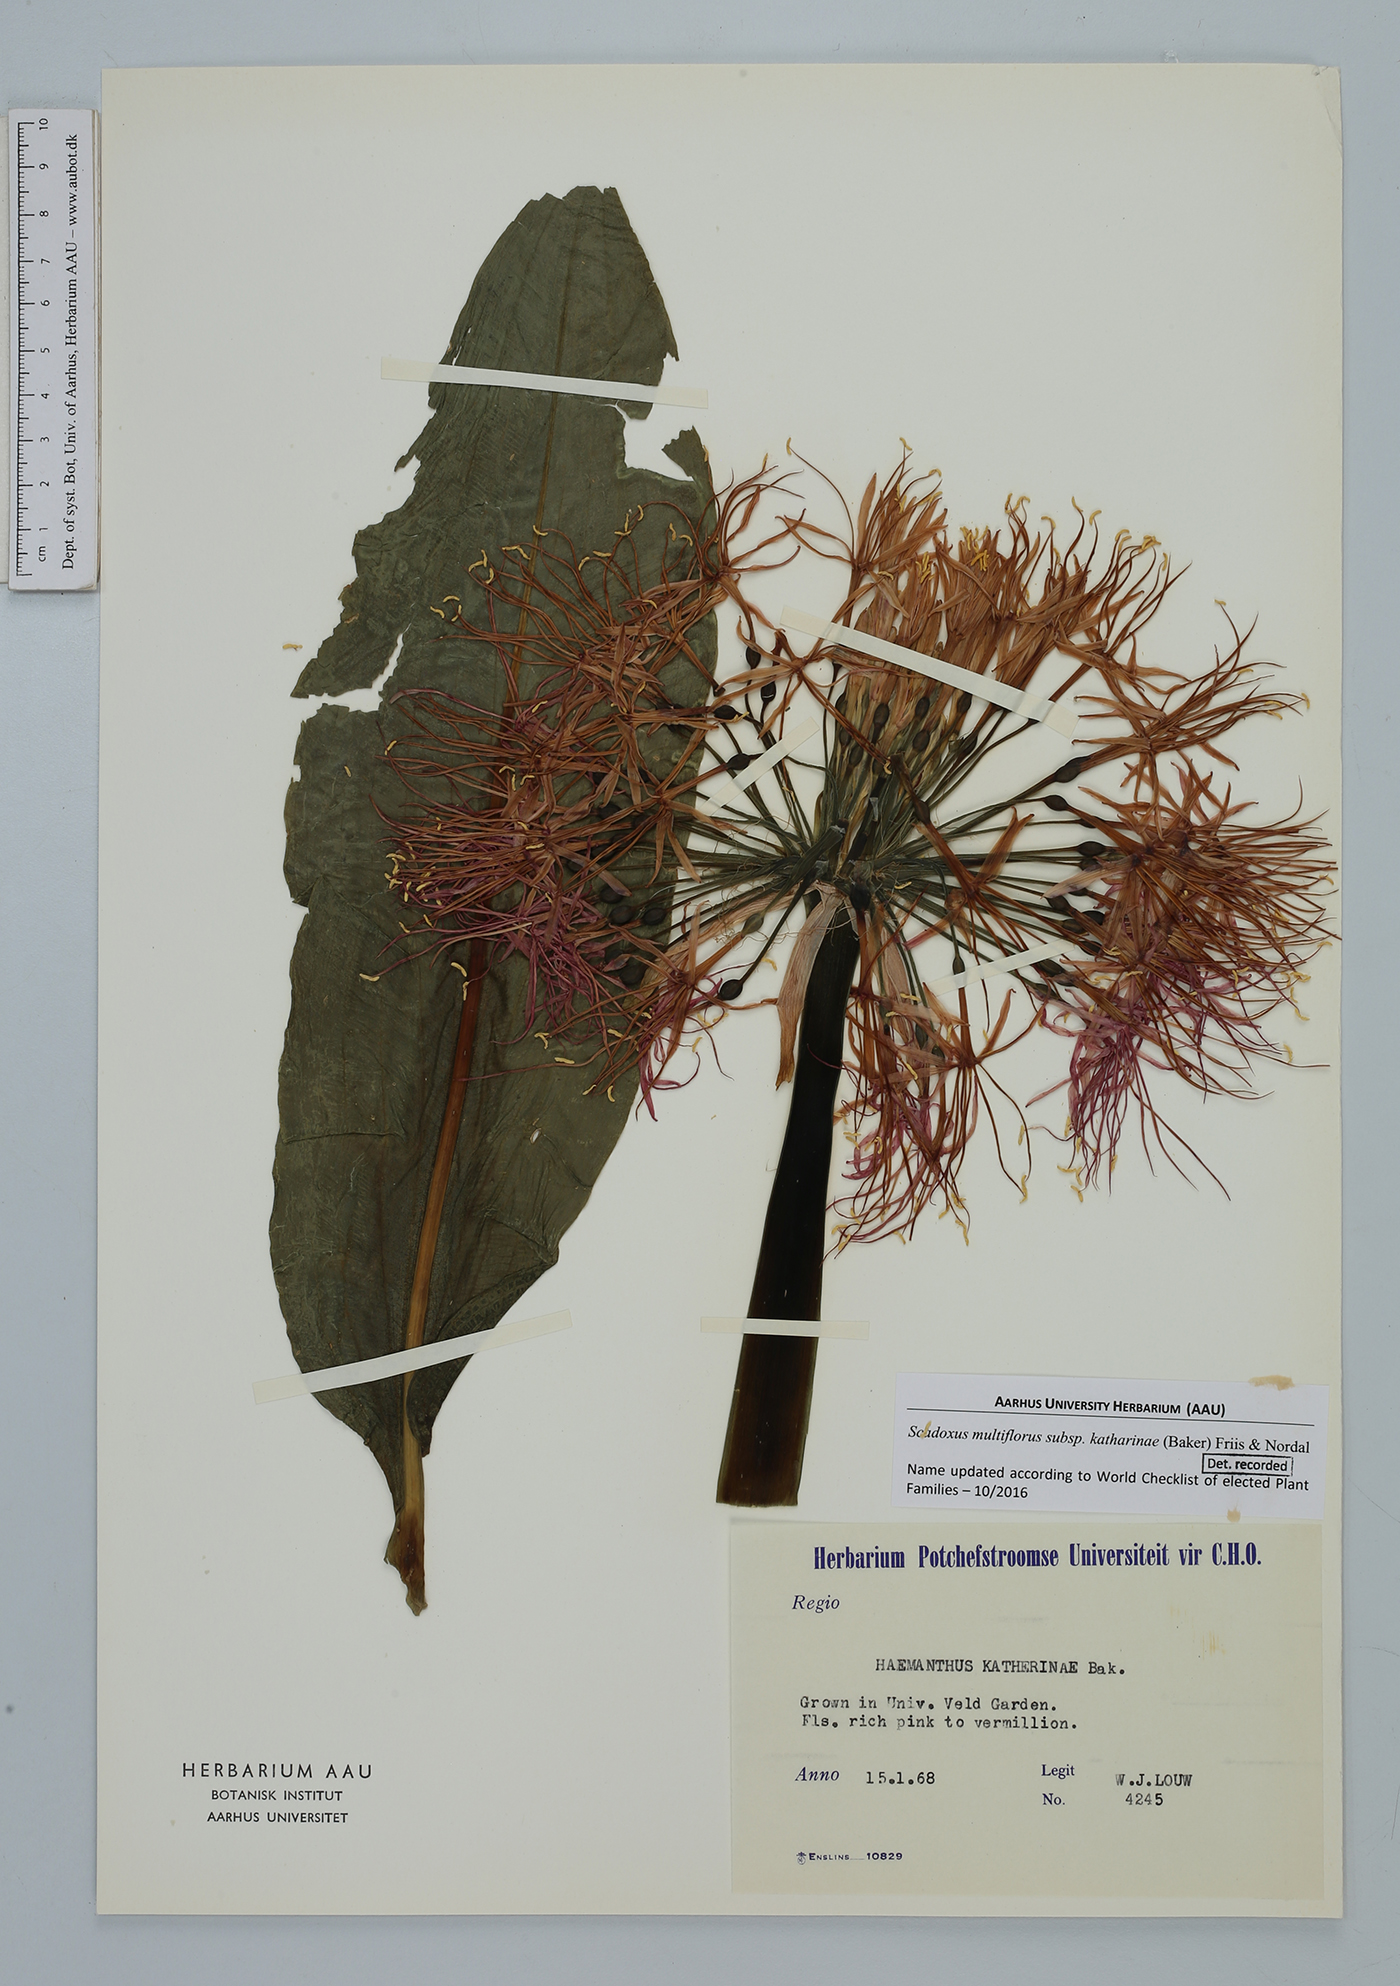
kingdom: Plantae
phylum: Tracheophyta
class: Liliopsida
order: Asparagales
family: Amaryllidaceae
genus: Scadoxus
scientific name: Scadoxus multiflorus
